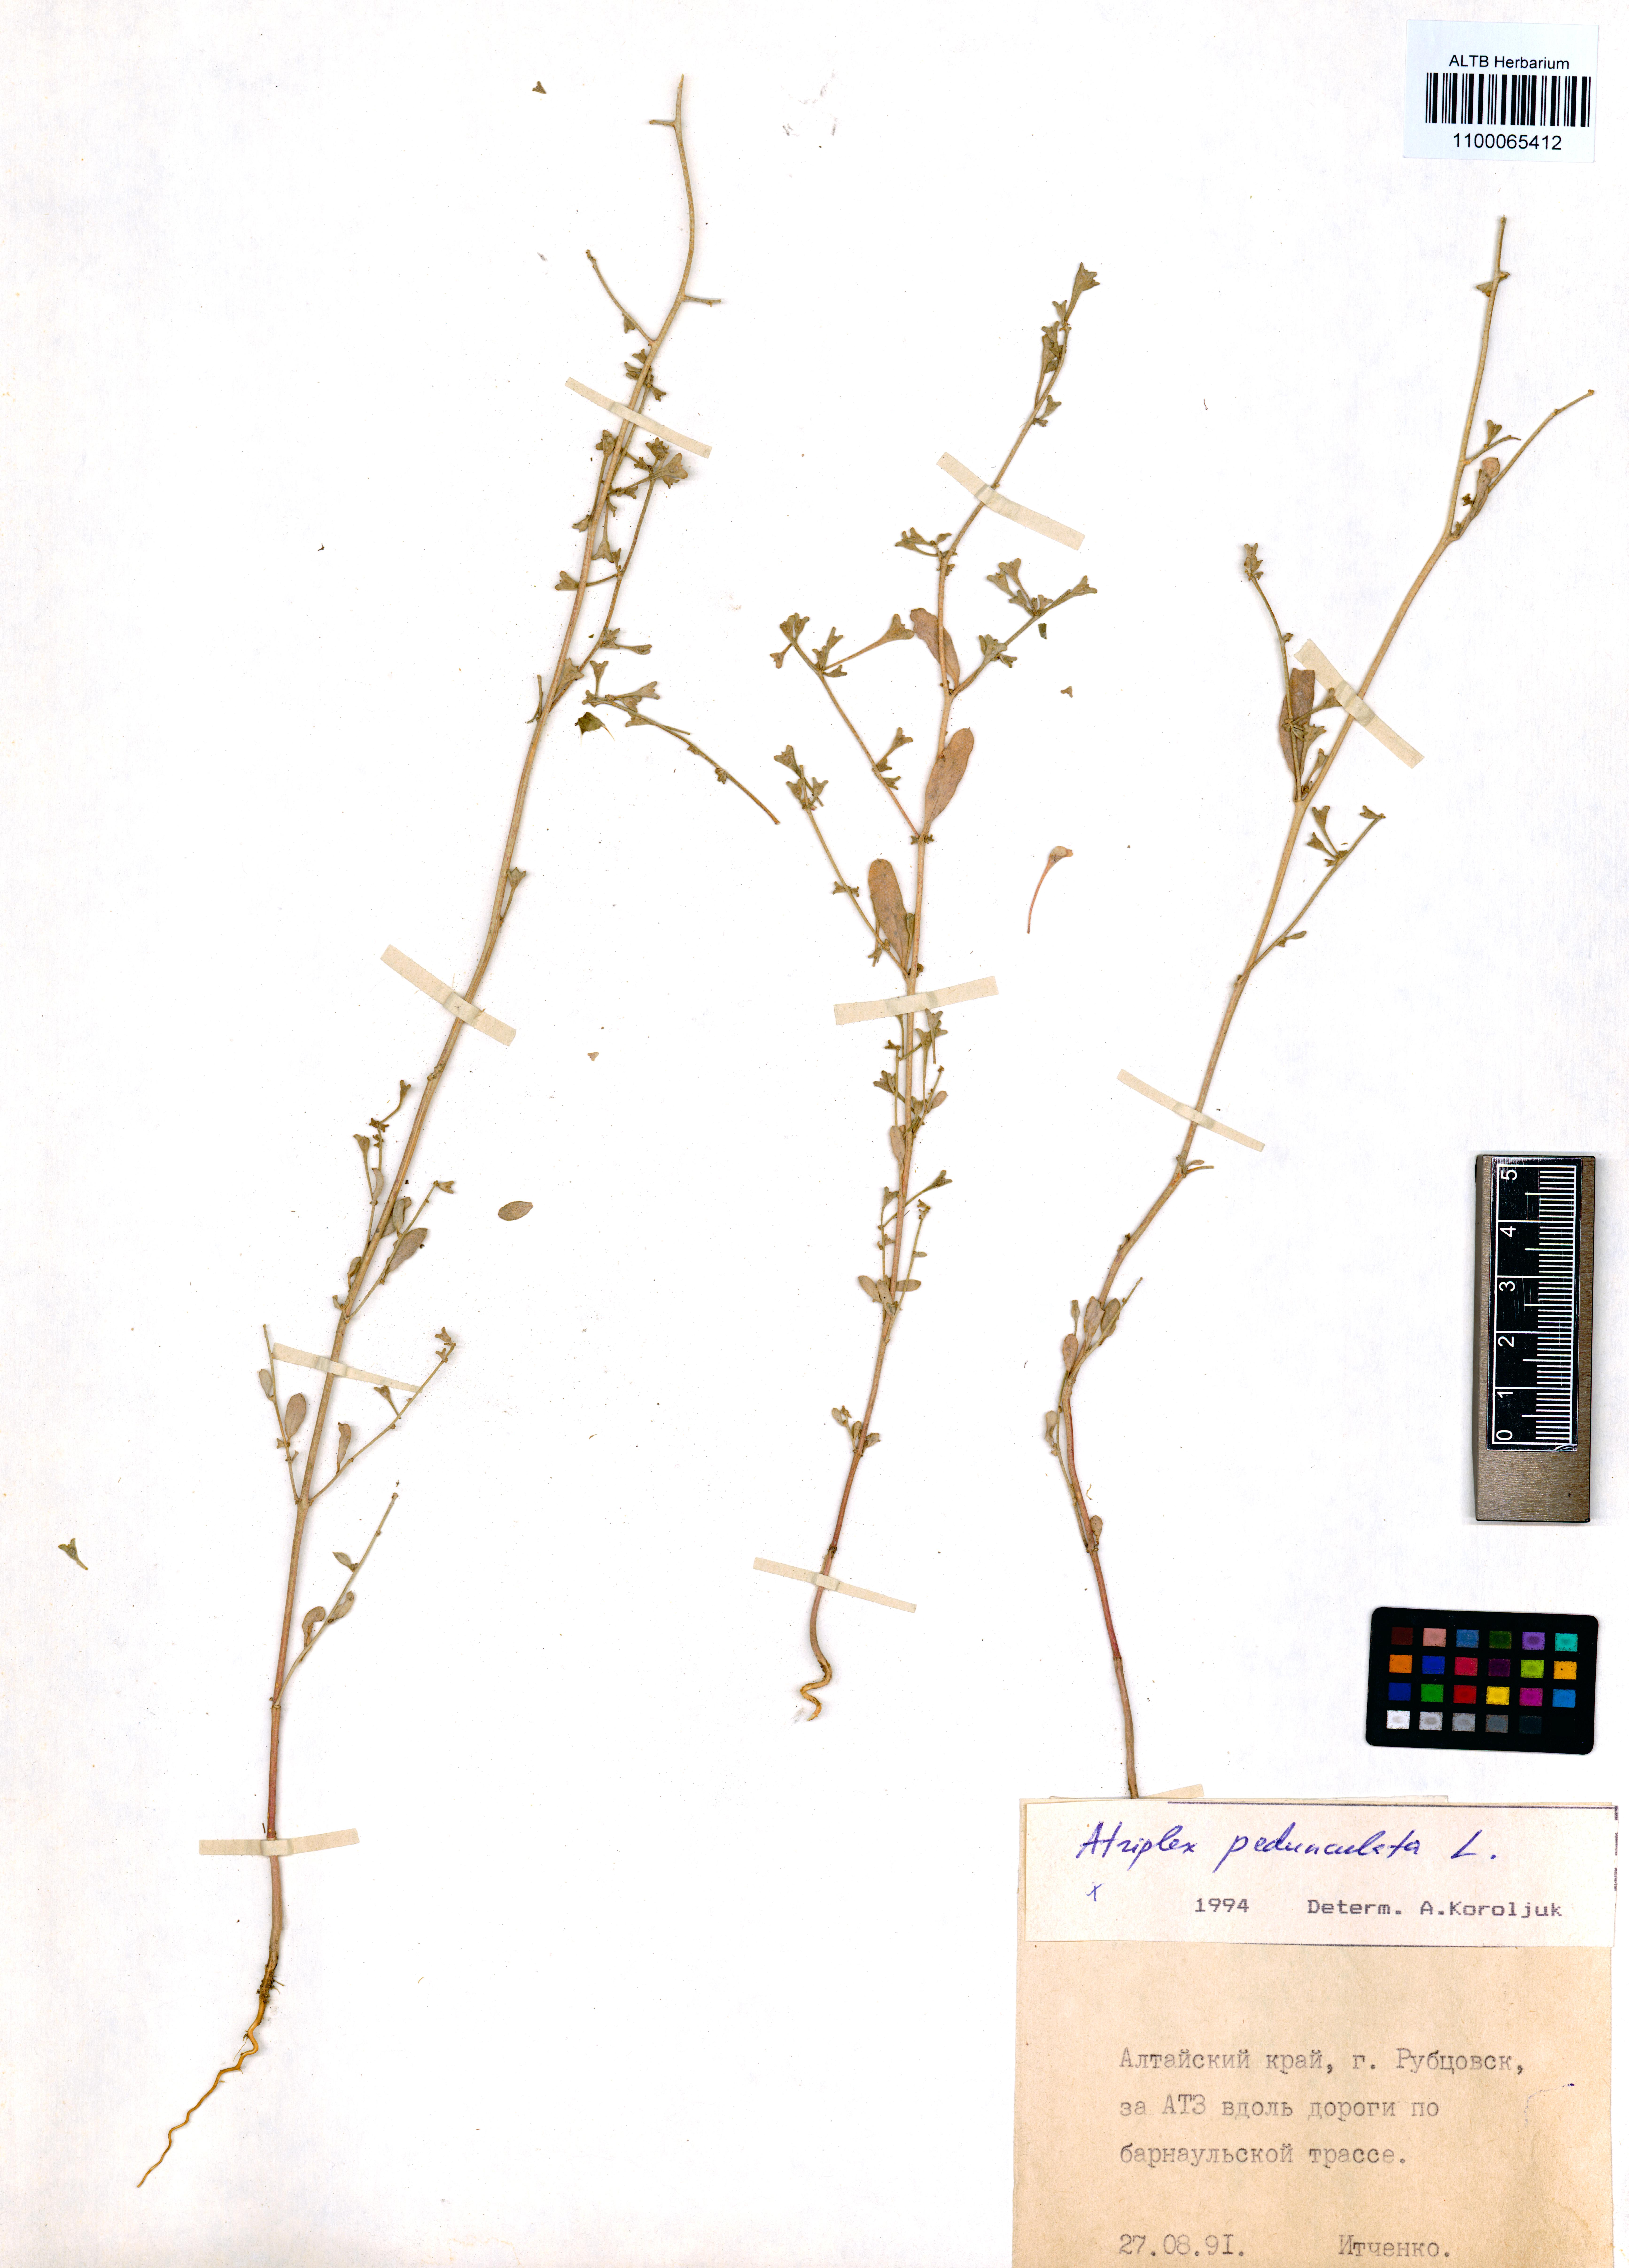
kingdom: Plantae
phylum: Tracheophyta
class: Magnoliopsida
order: Caryophyllales
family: Amaranthaceae
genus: Halimione
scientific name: Halimione pedunculata
